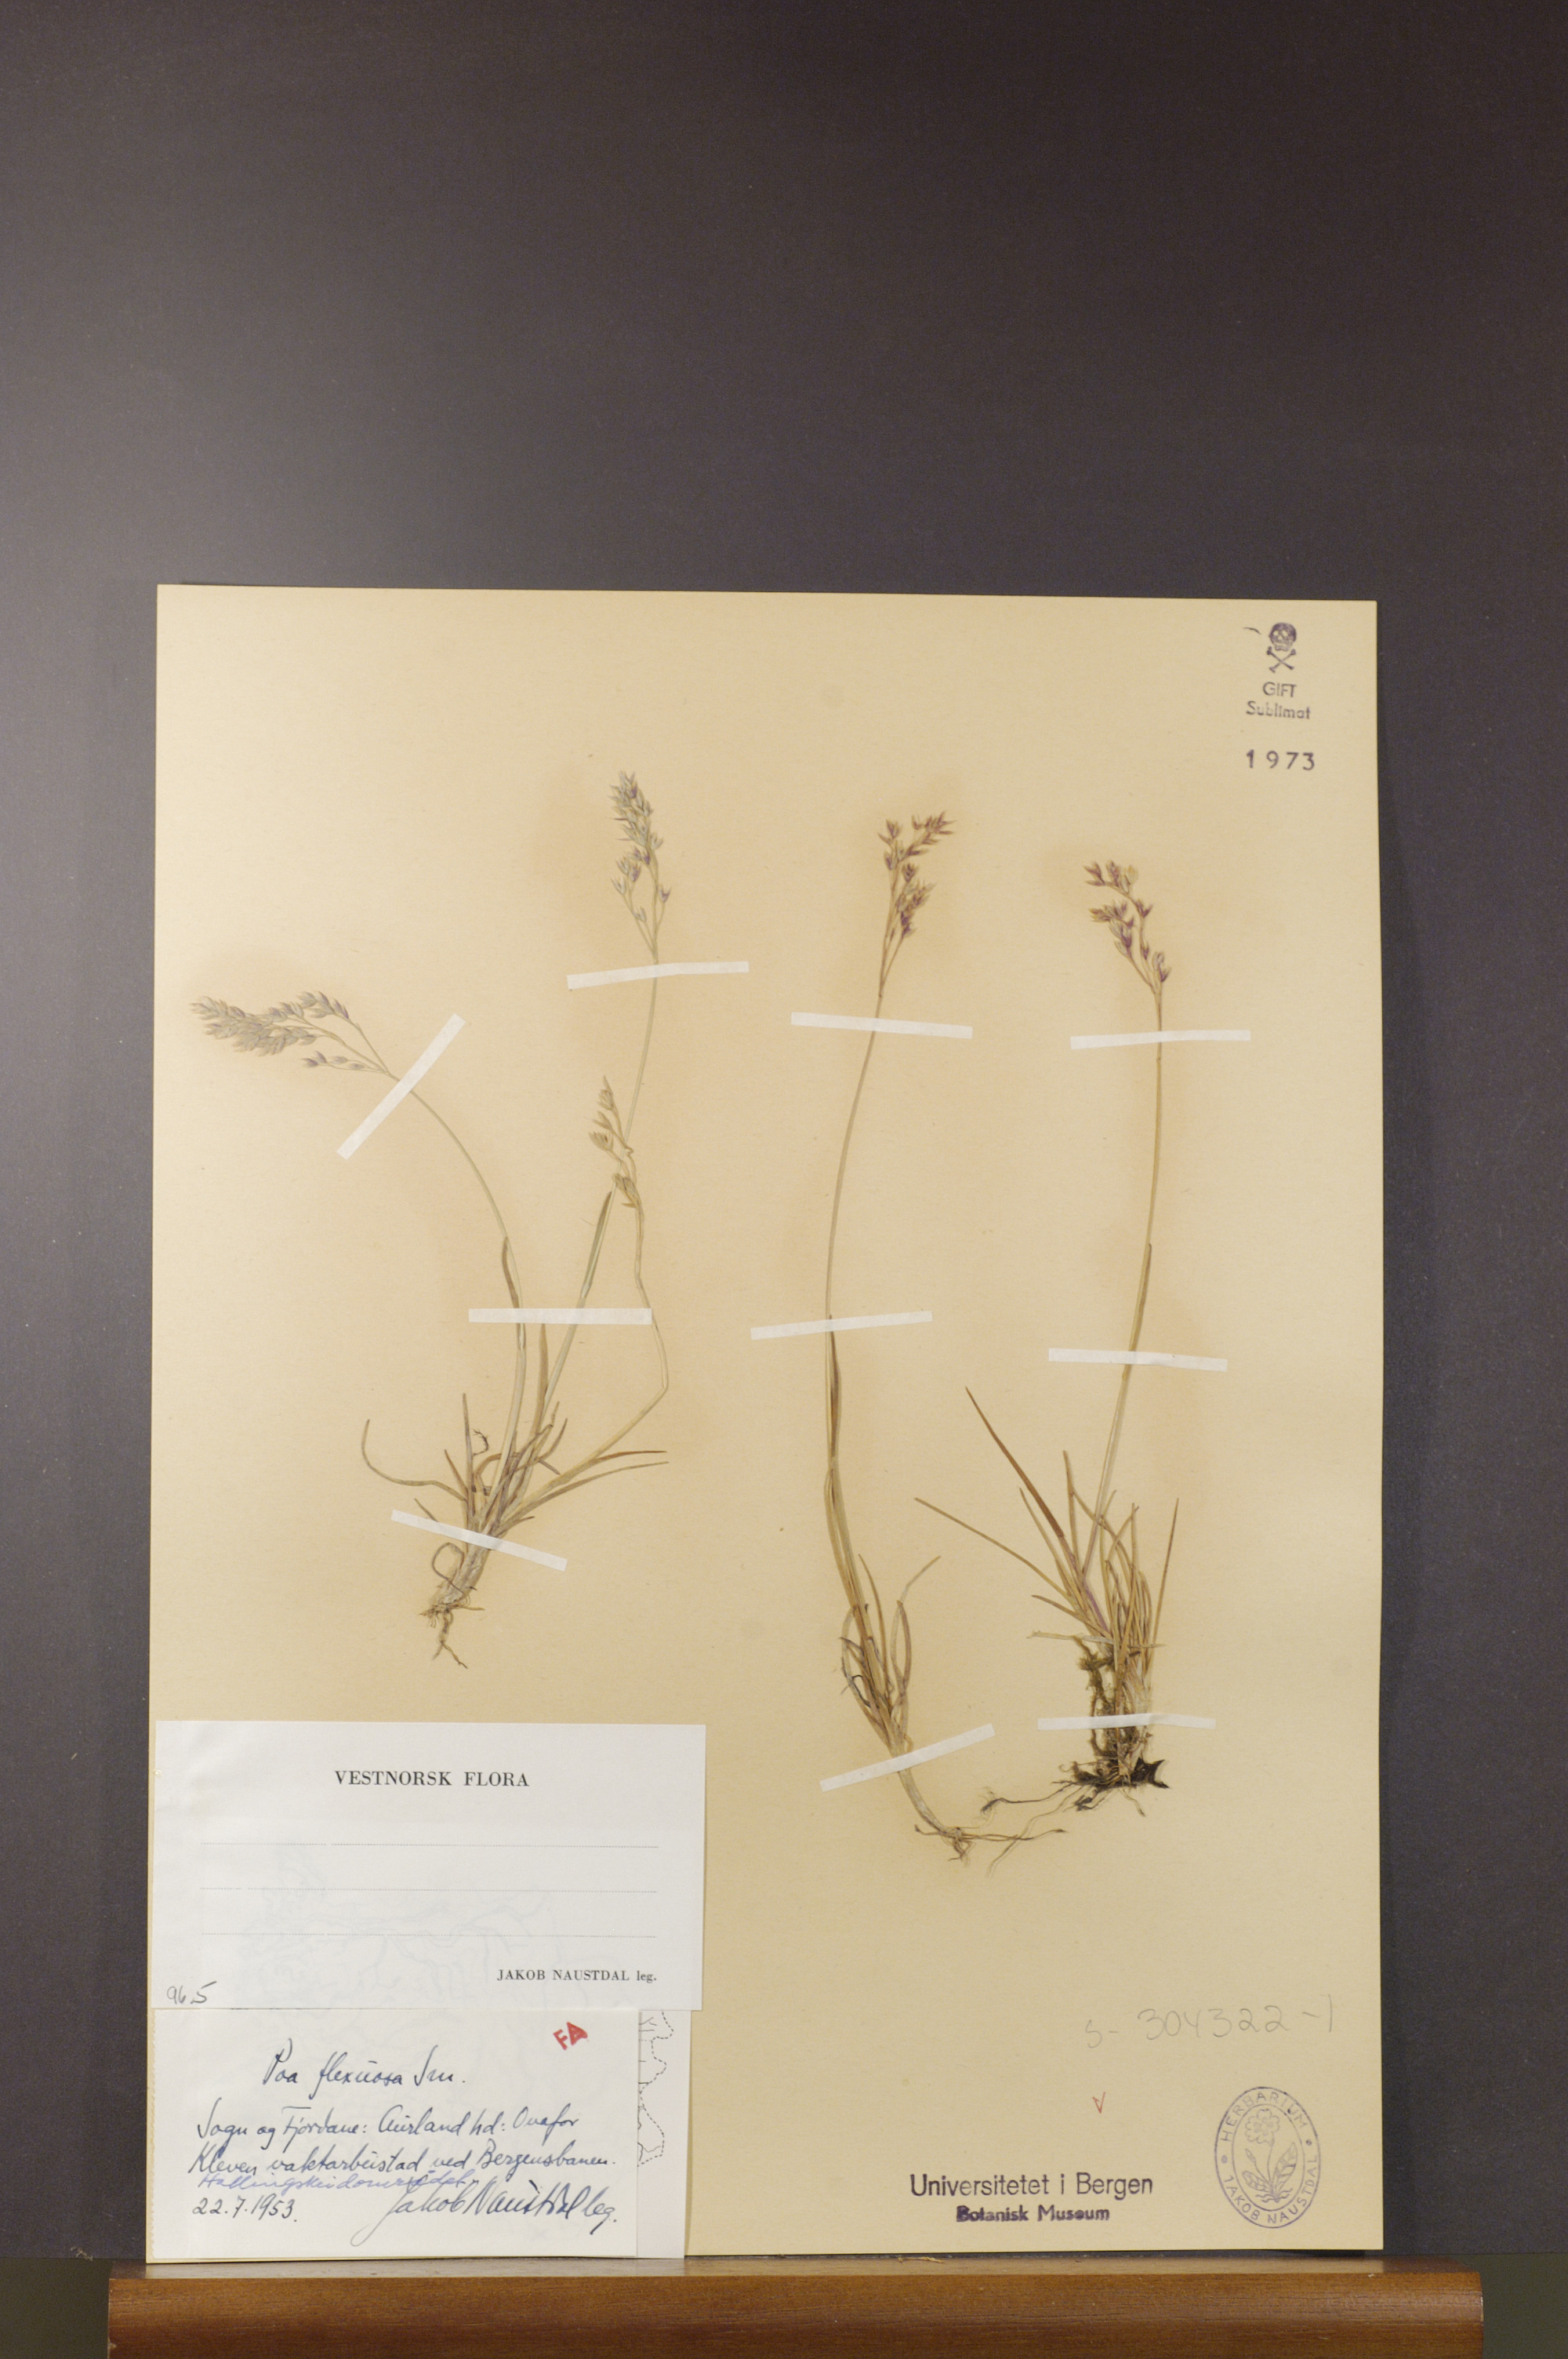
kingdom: Plantae
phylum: Tracheophyta
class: Liliopsida
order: Poales
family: Poaceae
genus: Poa
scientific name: Poa flexuosa
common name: Wavy meadow-grass
